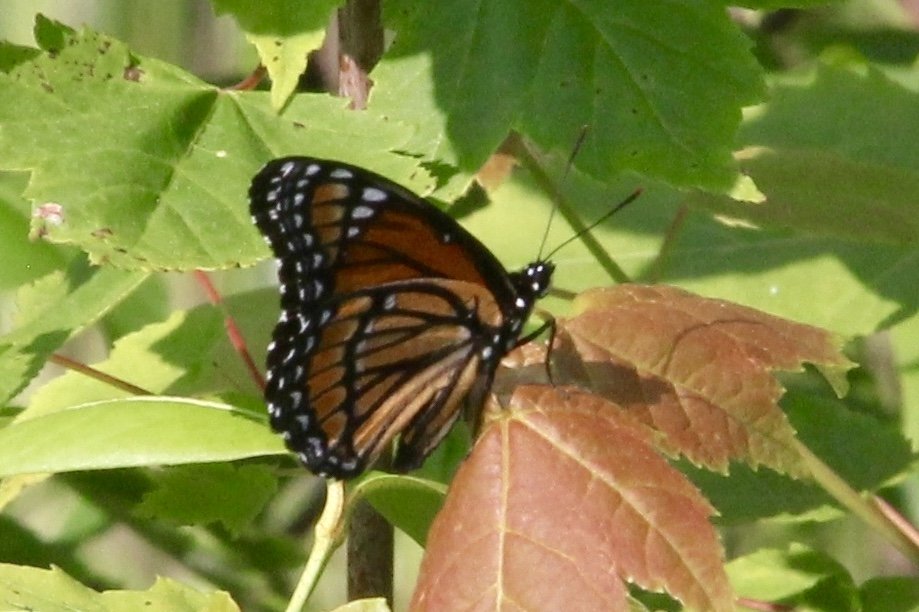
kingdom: Animalia
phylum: Arthropoda
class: Insecta
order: Lepidoptera
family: Nymphalidae
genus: Limenitis
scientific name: Limenitis archippus
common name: Viceroy
